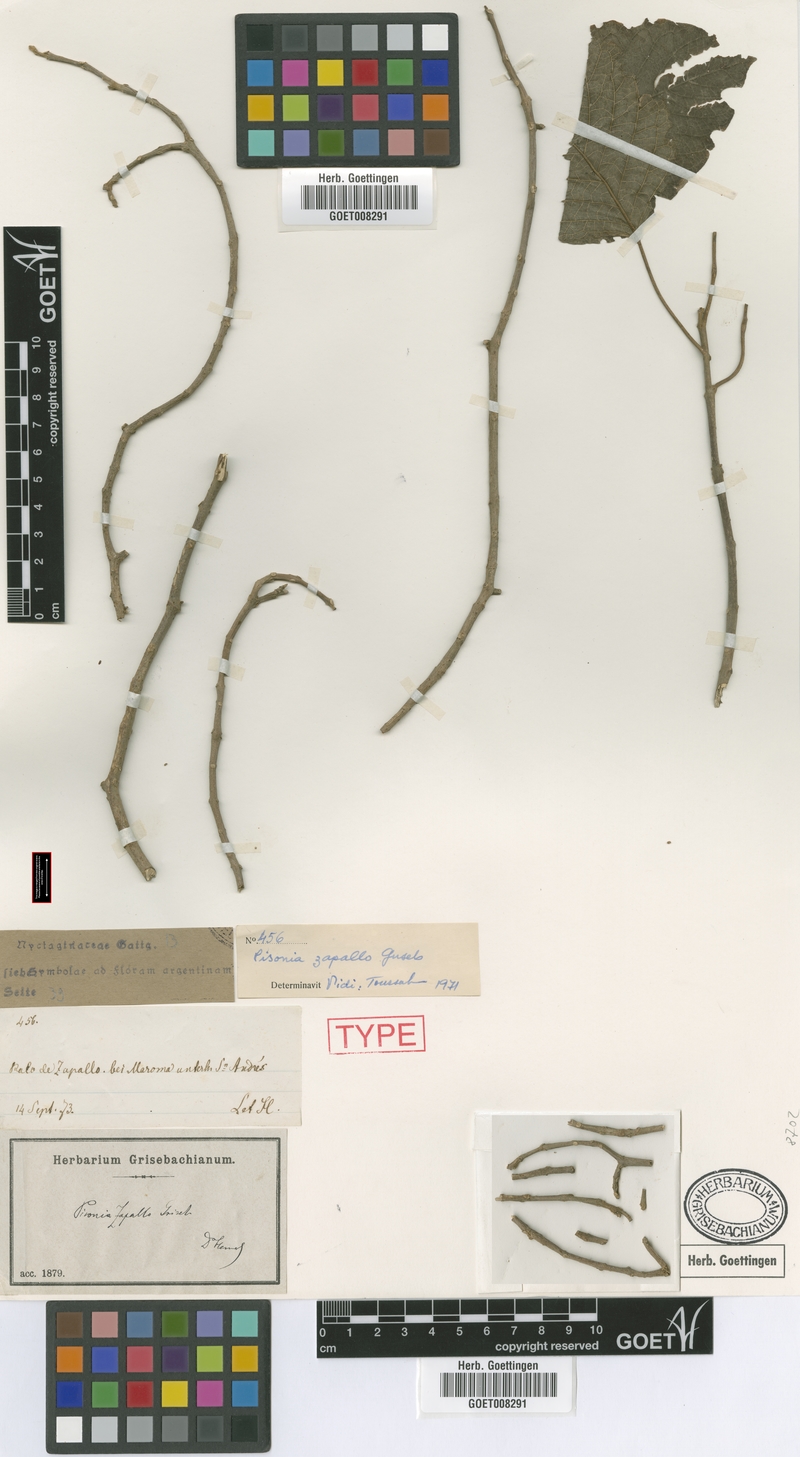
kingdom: Plantae
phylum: Tracheophyta
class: Magnoliopsida
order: Caryophyllales
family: Nyctaginaceae
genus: Pisonia
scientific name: Pisonia zapallo
